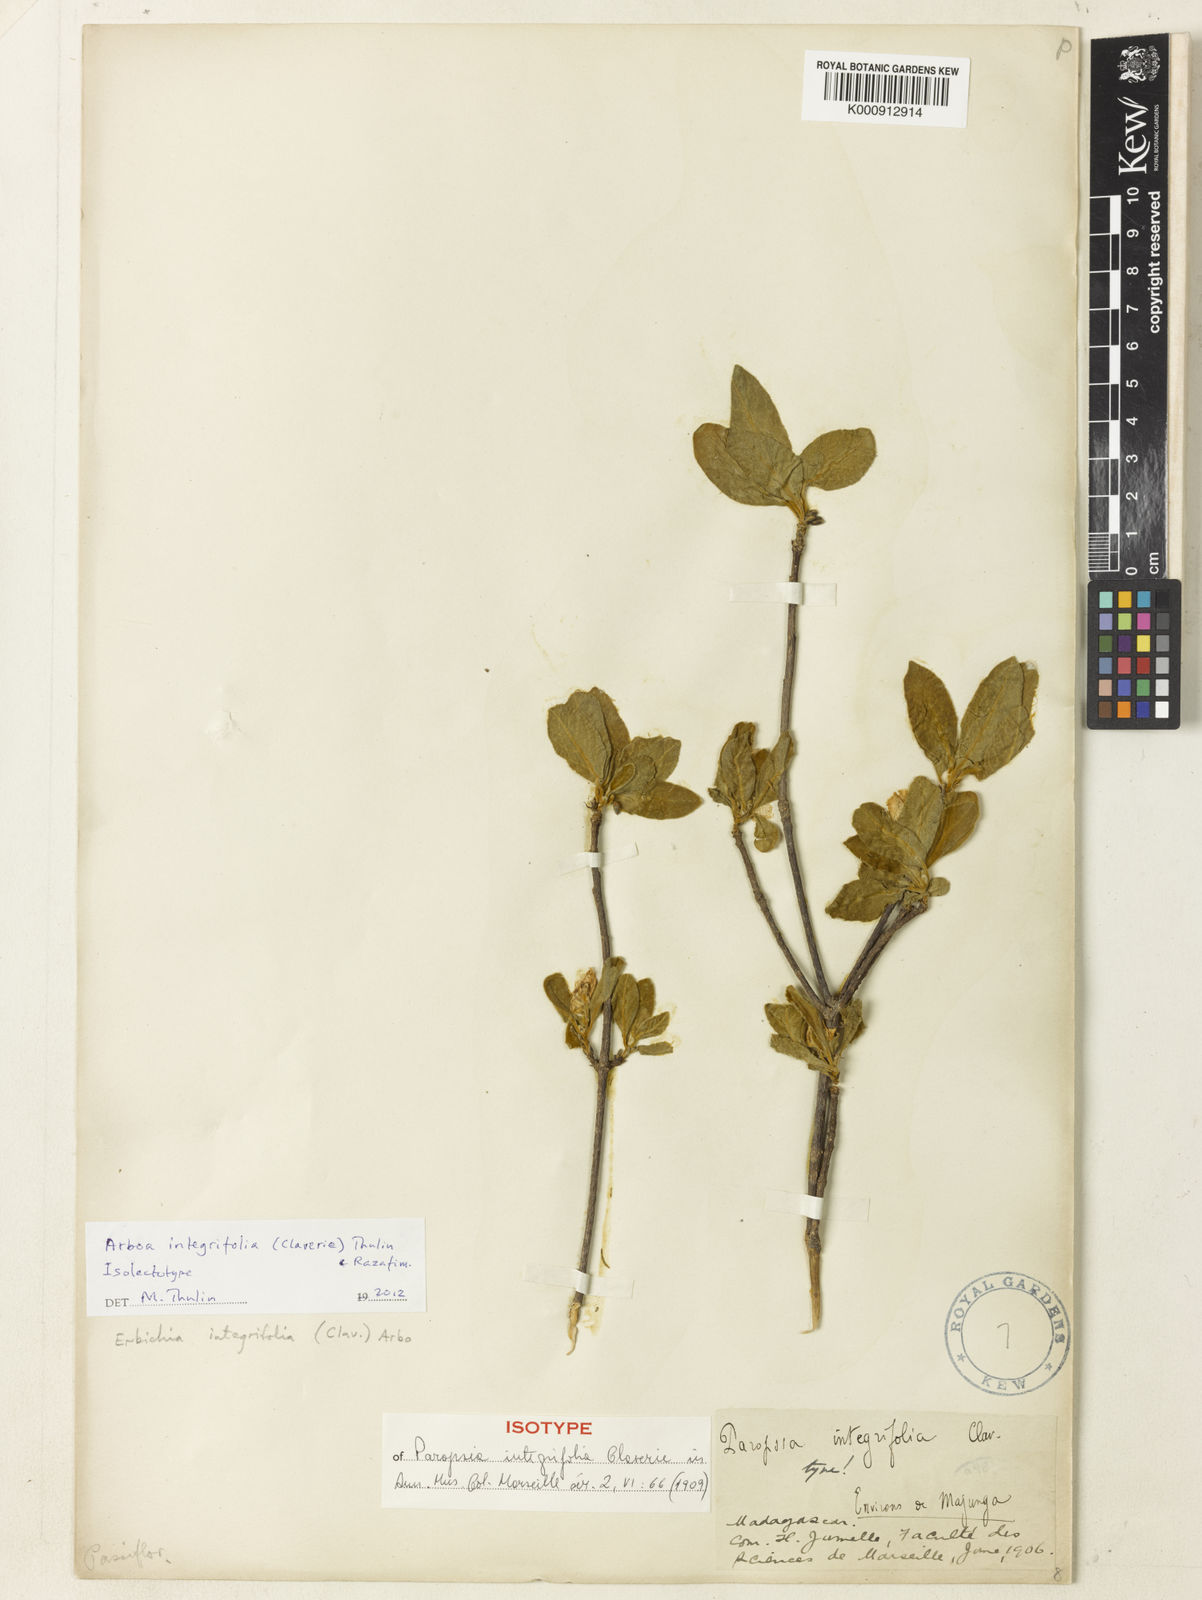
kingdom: Plantae
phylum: Tracheophyta
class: Magnoliopsida
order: Malpighiales
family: Turneraceae
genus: Arboa
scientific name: Arboa integrifolia
